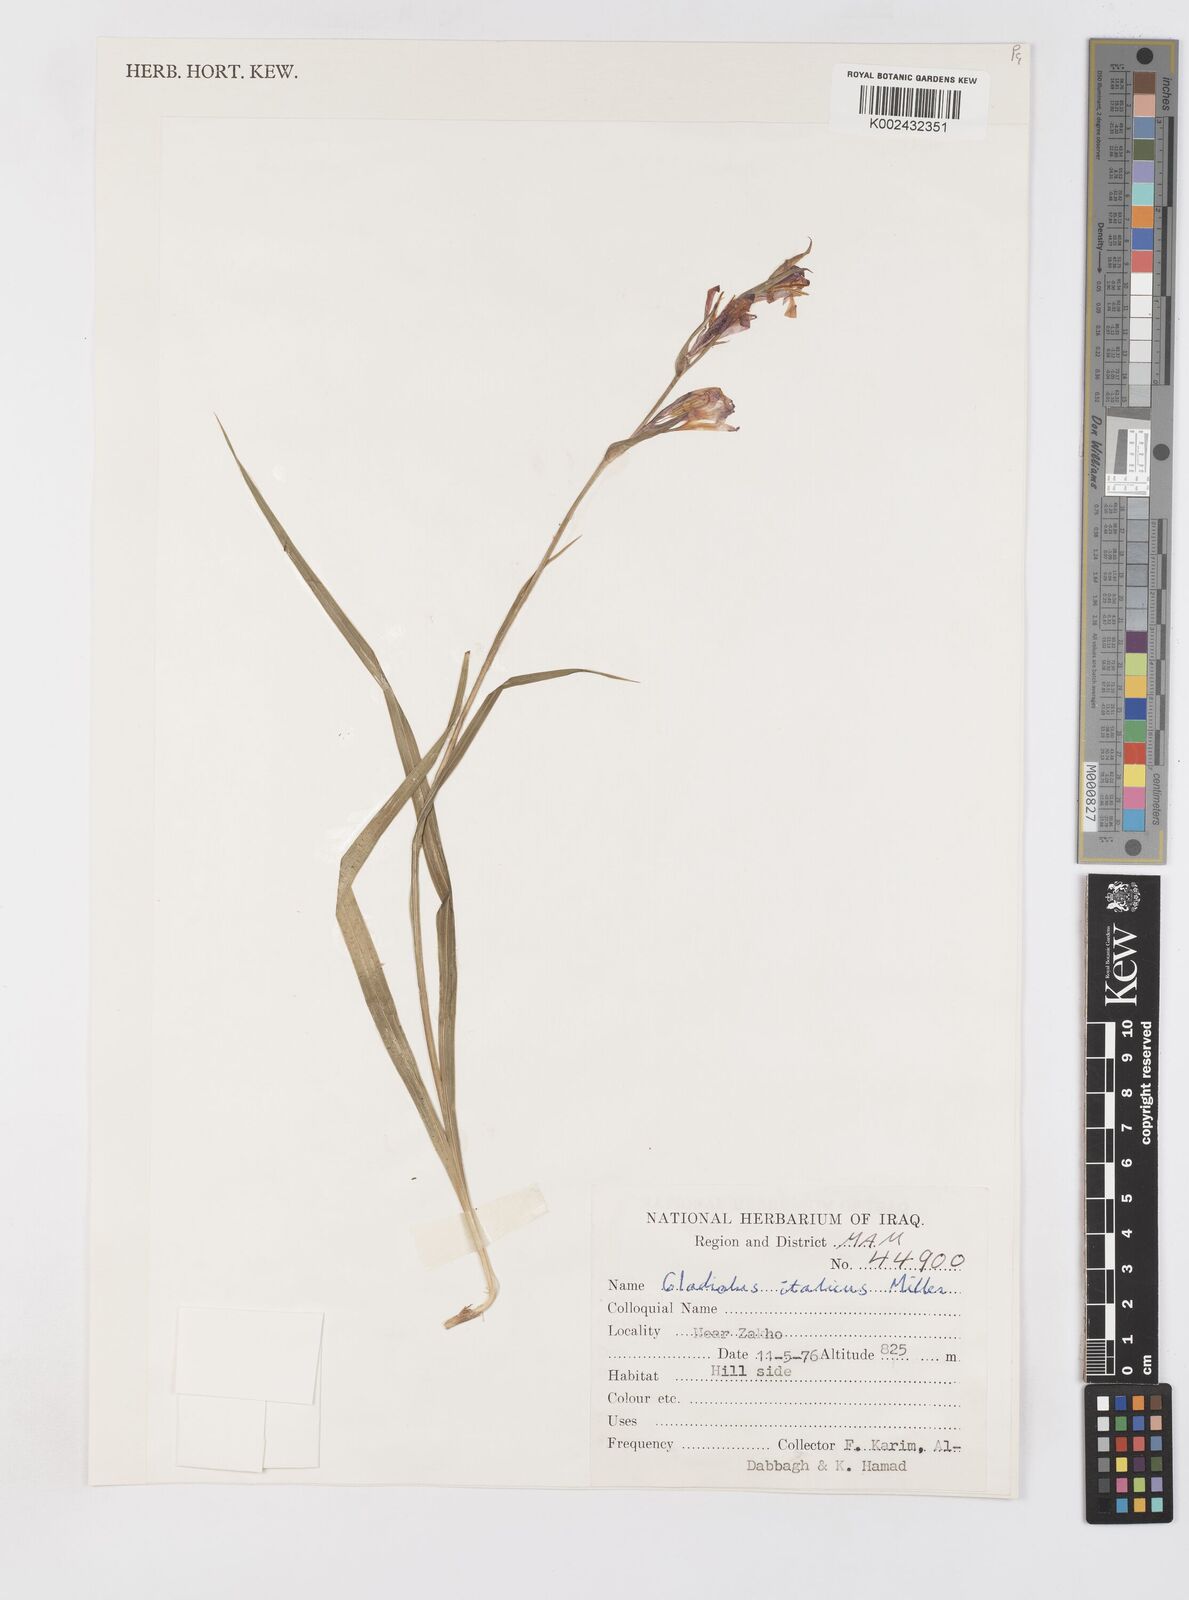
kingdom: Plantae
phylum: Tracheophyta
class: Liliopsida
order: Asparagales
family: Iridaceae
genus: Gladiolus
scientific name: Gladiolus italicus
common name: Field gladiolus
